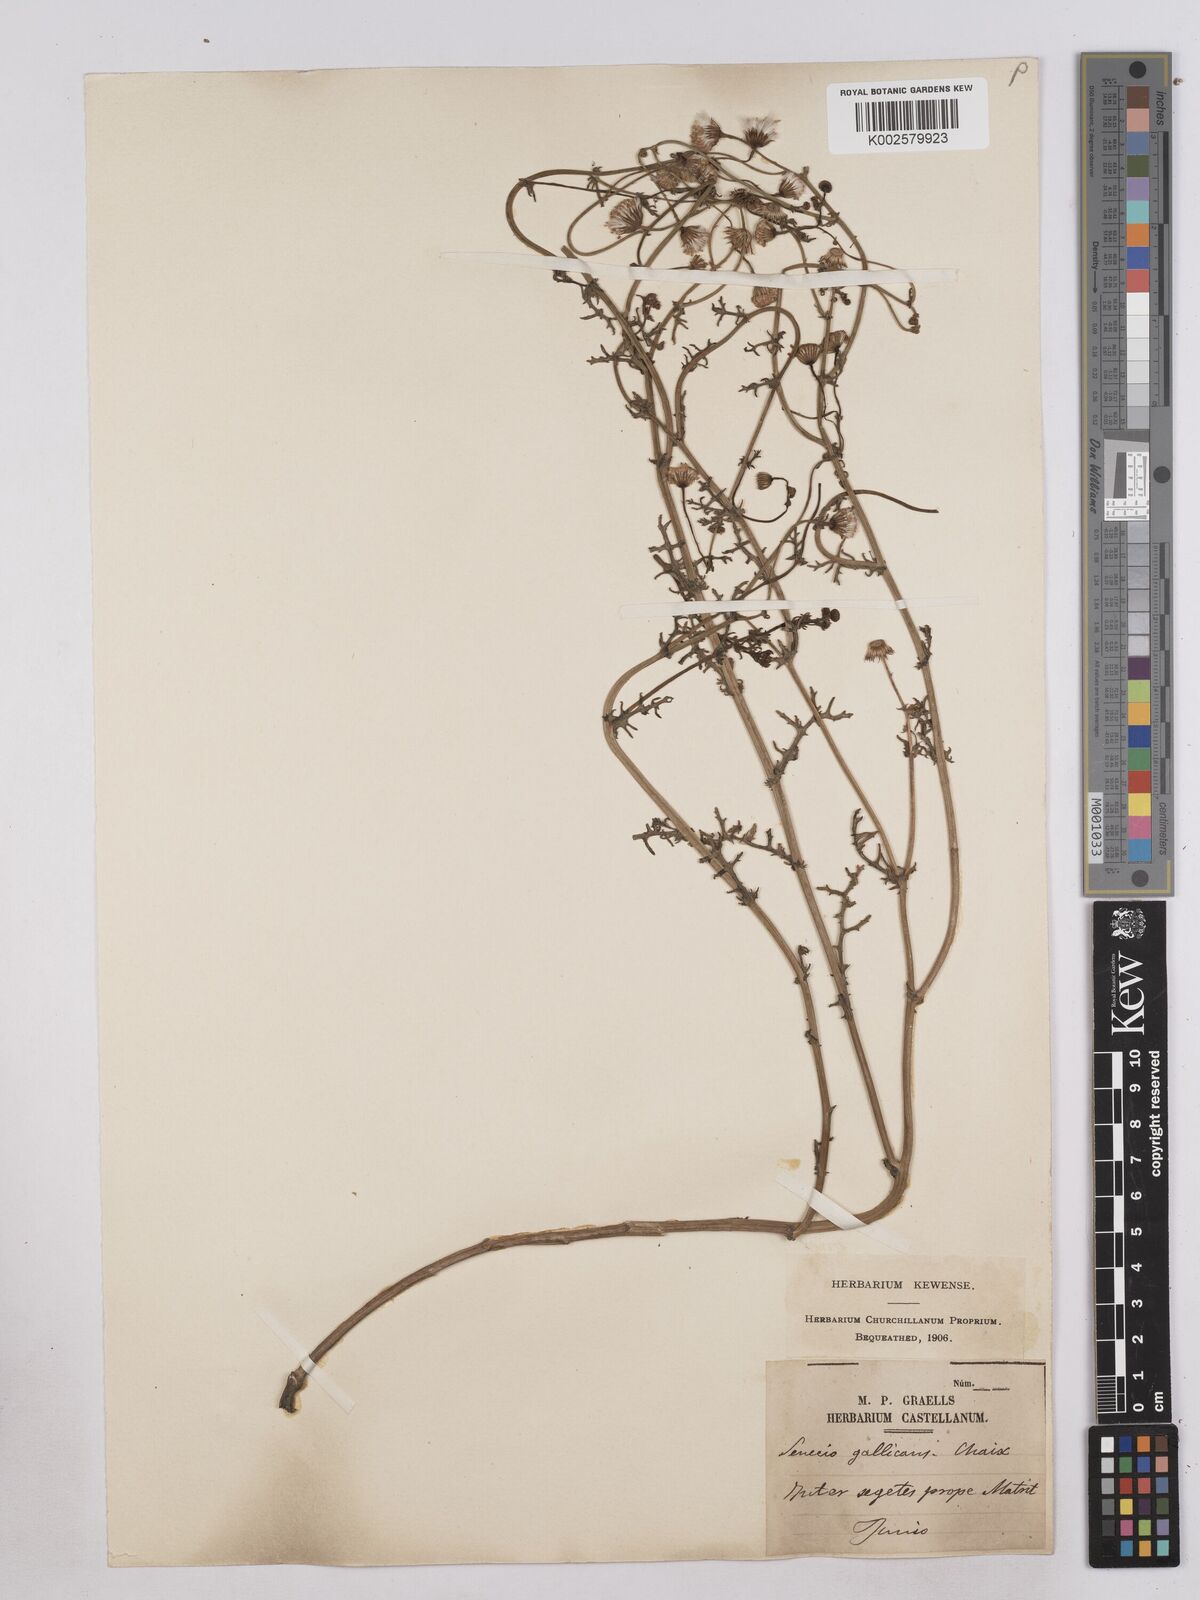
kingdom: Plantae
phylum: Tracheophyta
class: Magnoliopsida
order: Asterales
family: Asteraceae
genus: Senecio
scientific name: Senecio gallicus
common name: French groundsel
